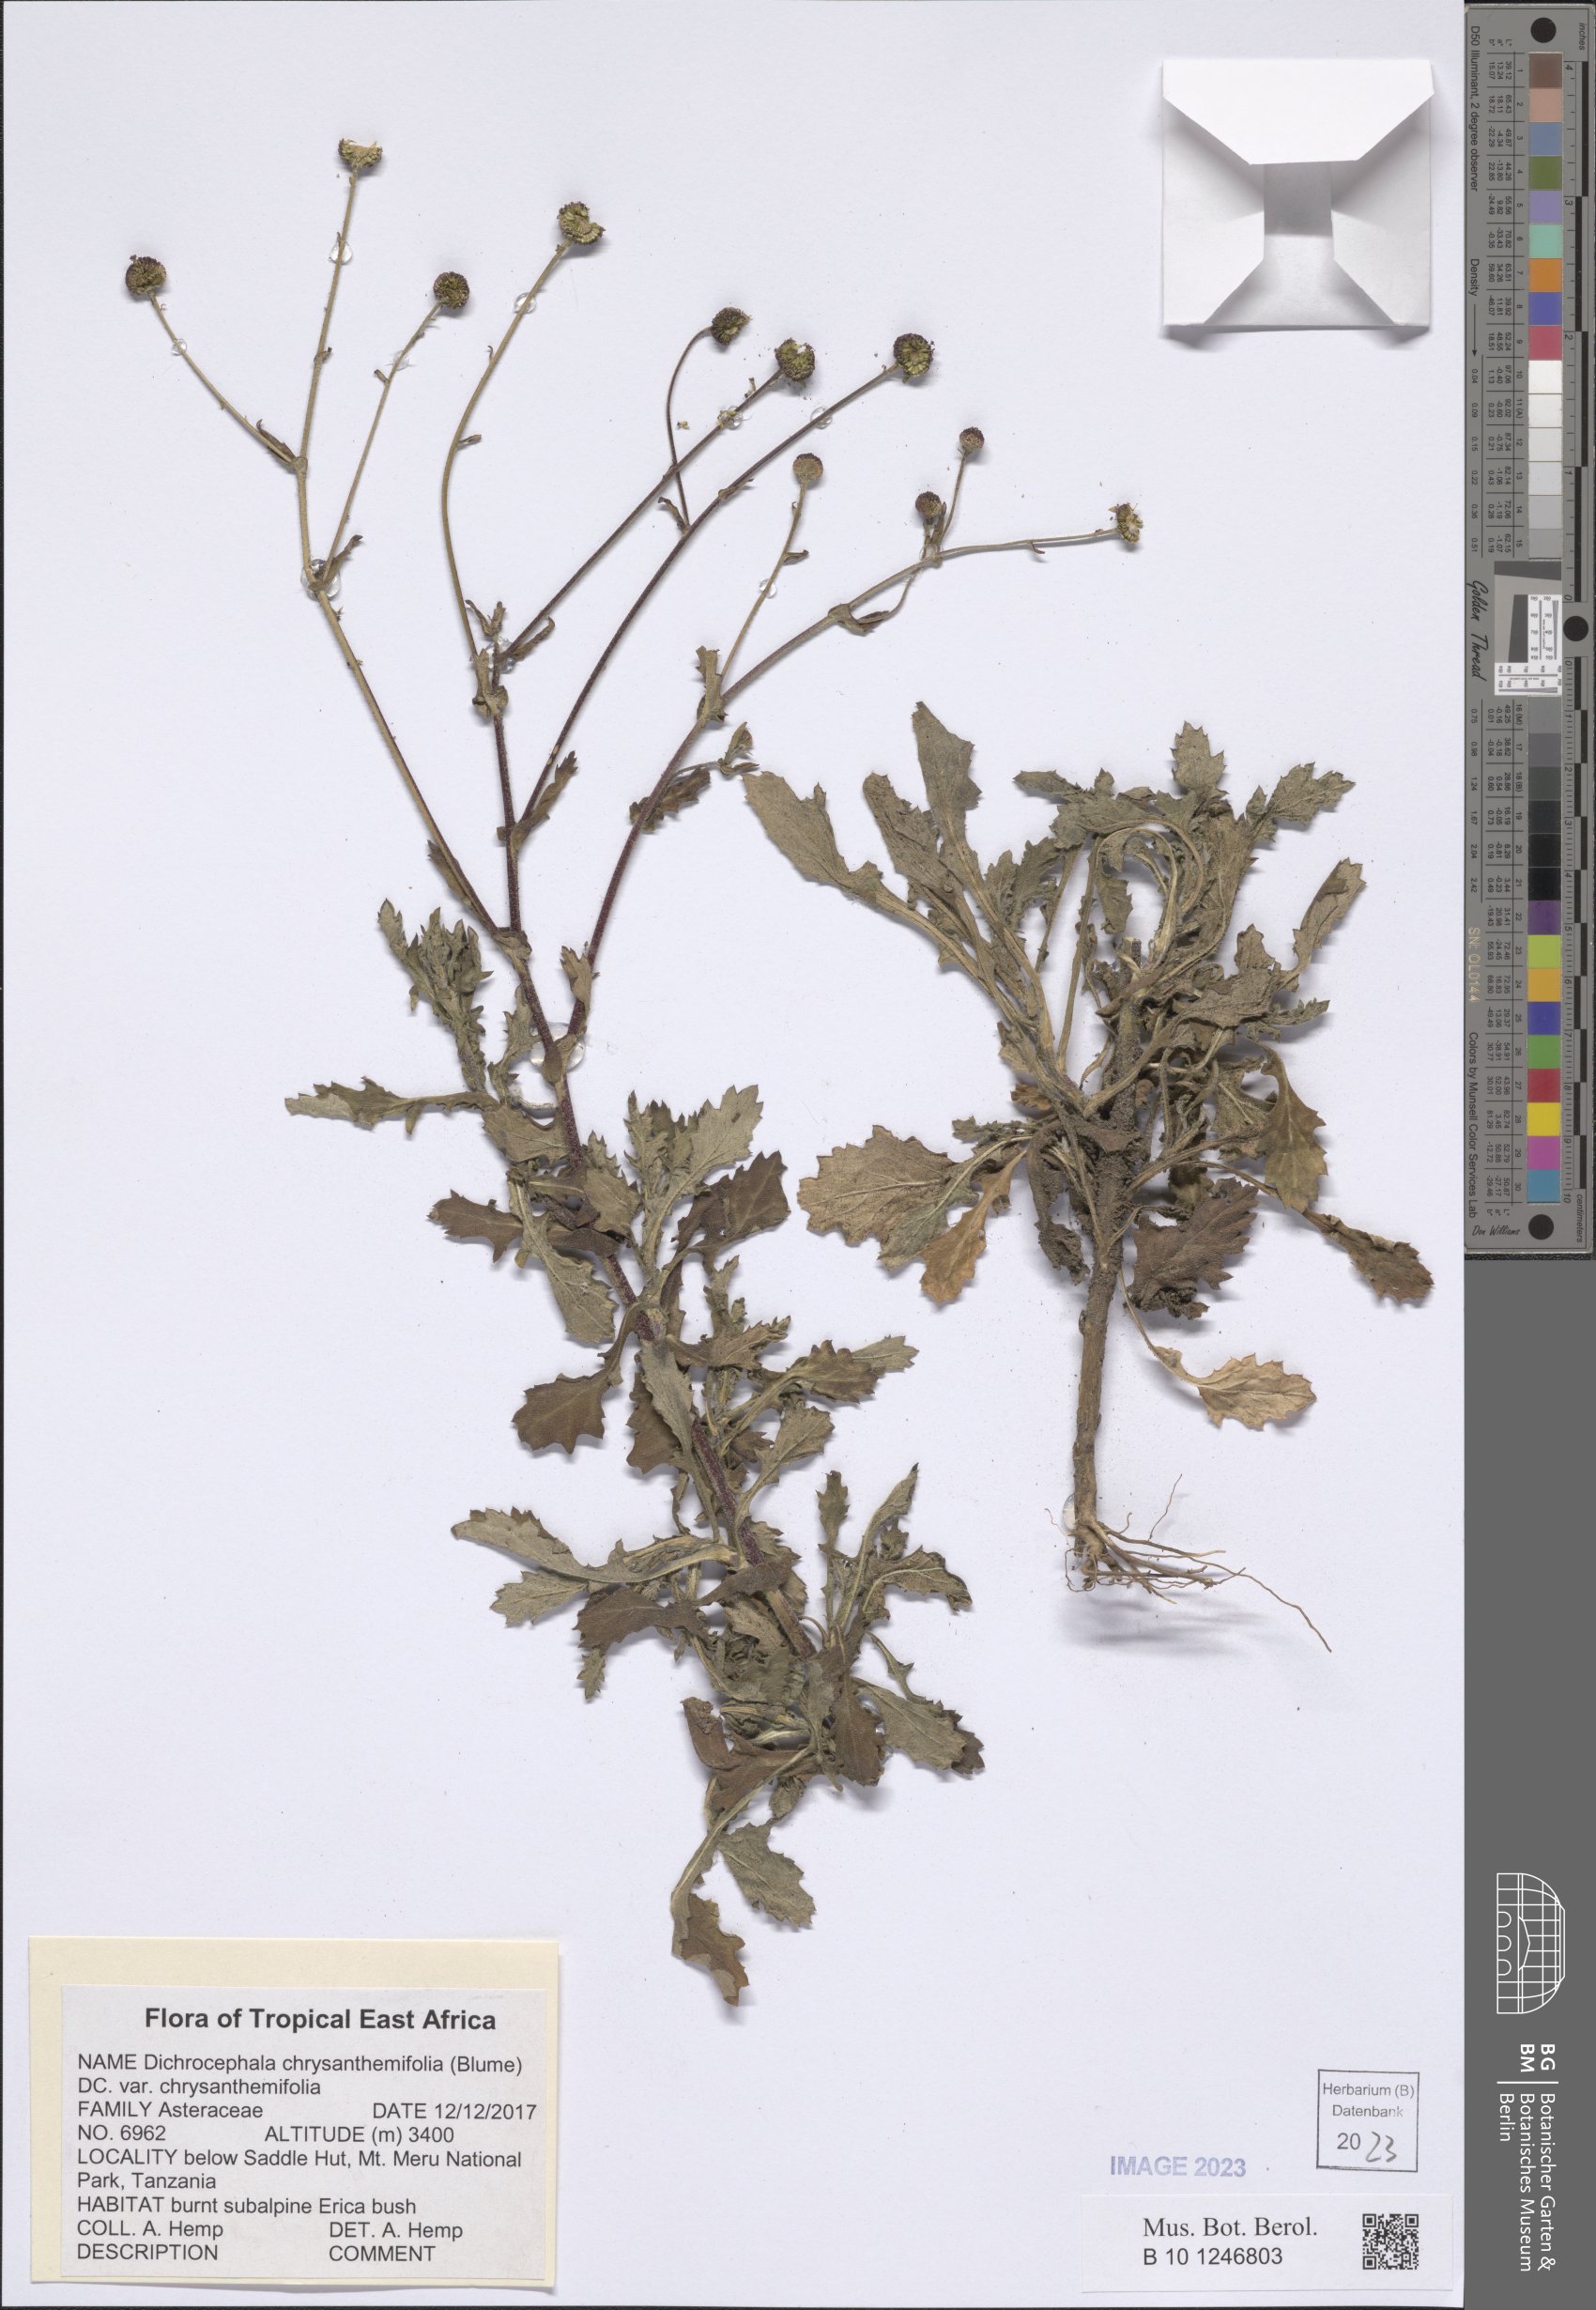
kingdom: Plantae
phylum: Tracheophyta
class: Magnoliopsida
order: Asterales
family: Asteraceae
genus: Dichrocephala
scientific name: Dichrocephala chrysanthemifolia
